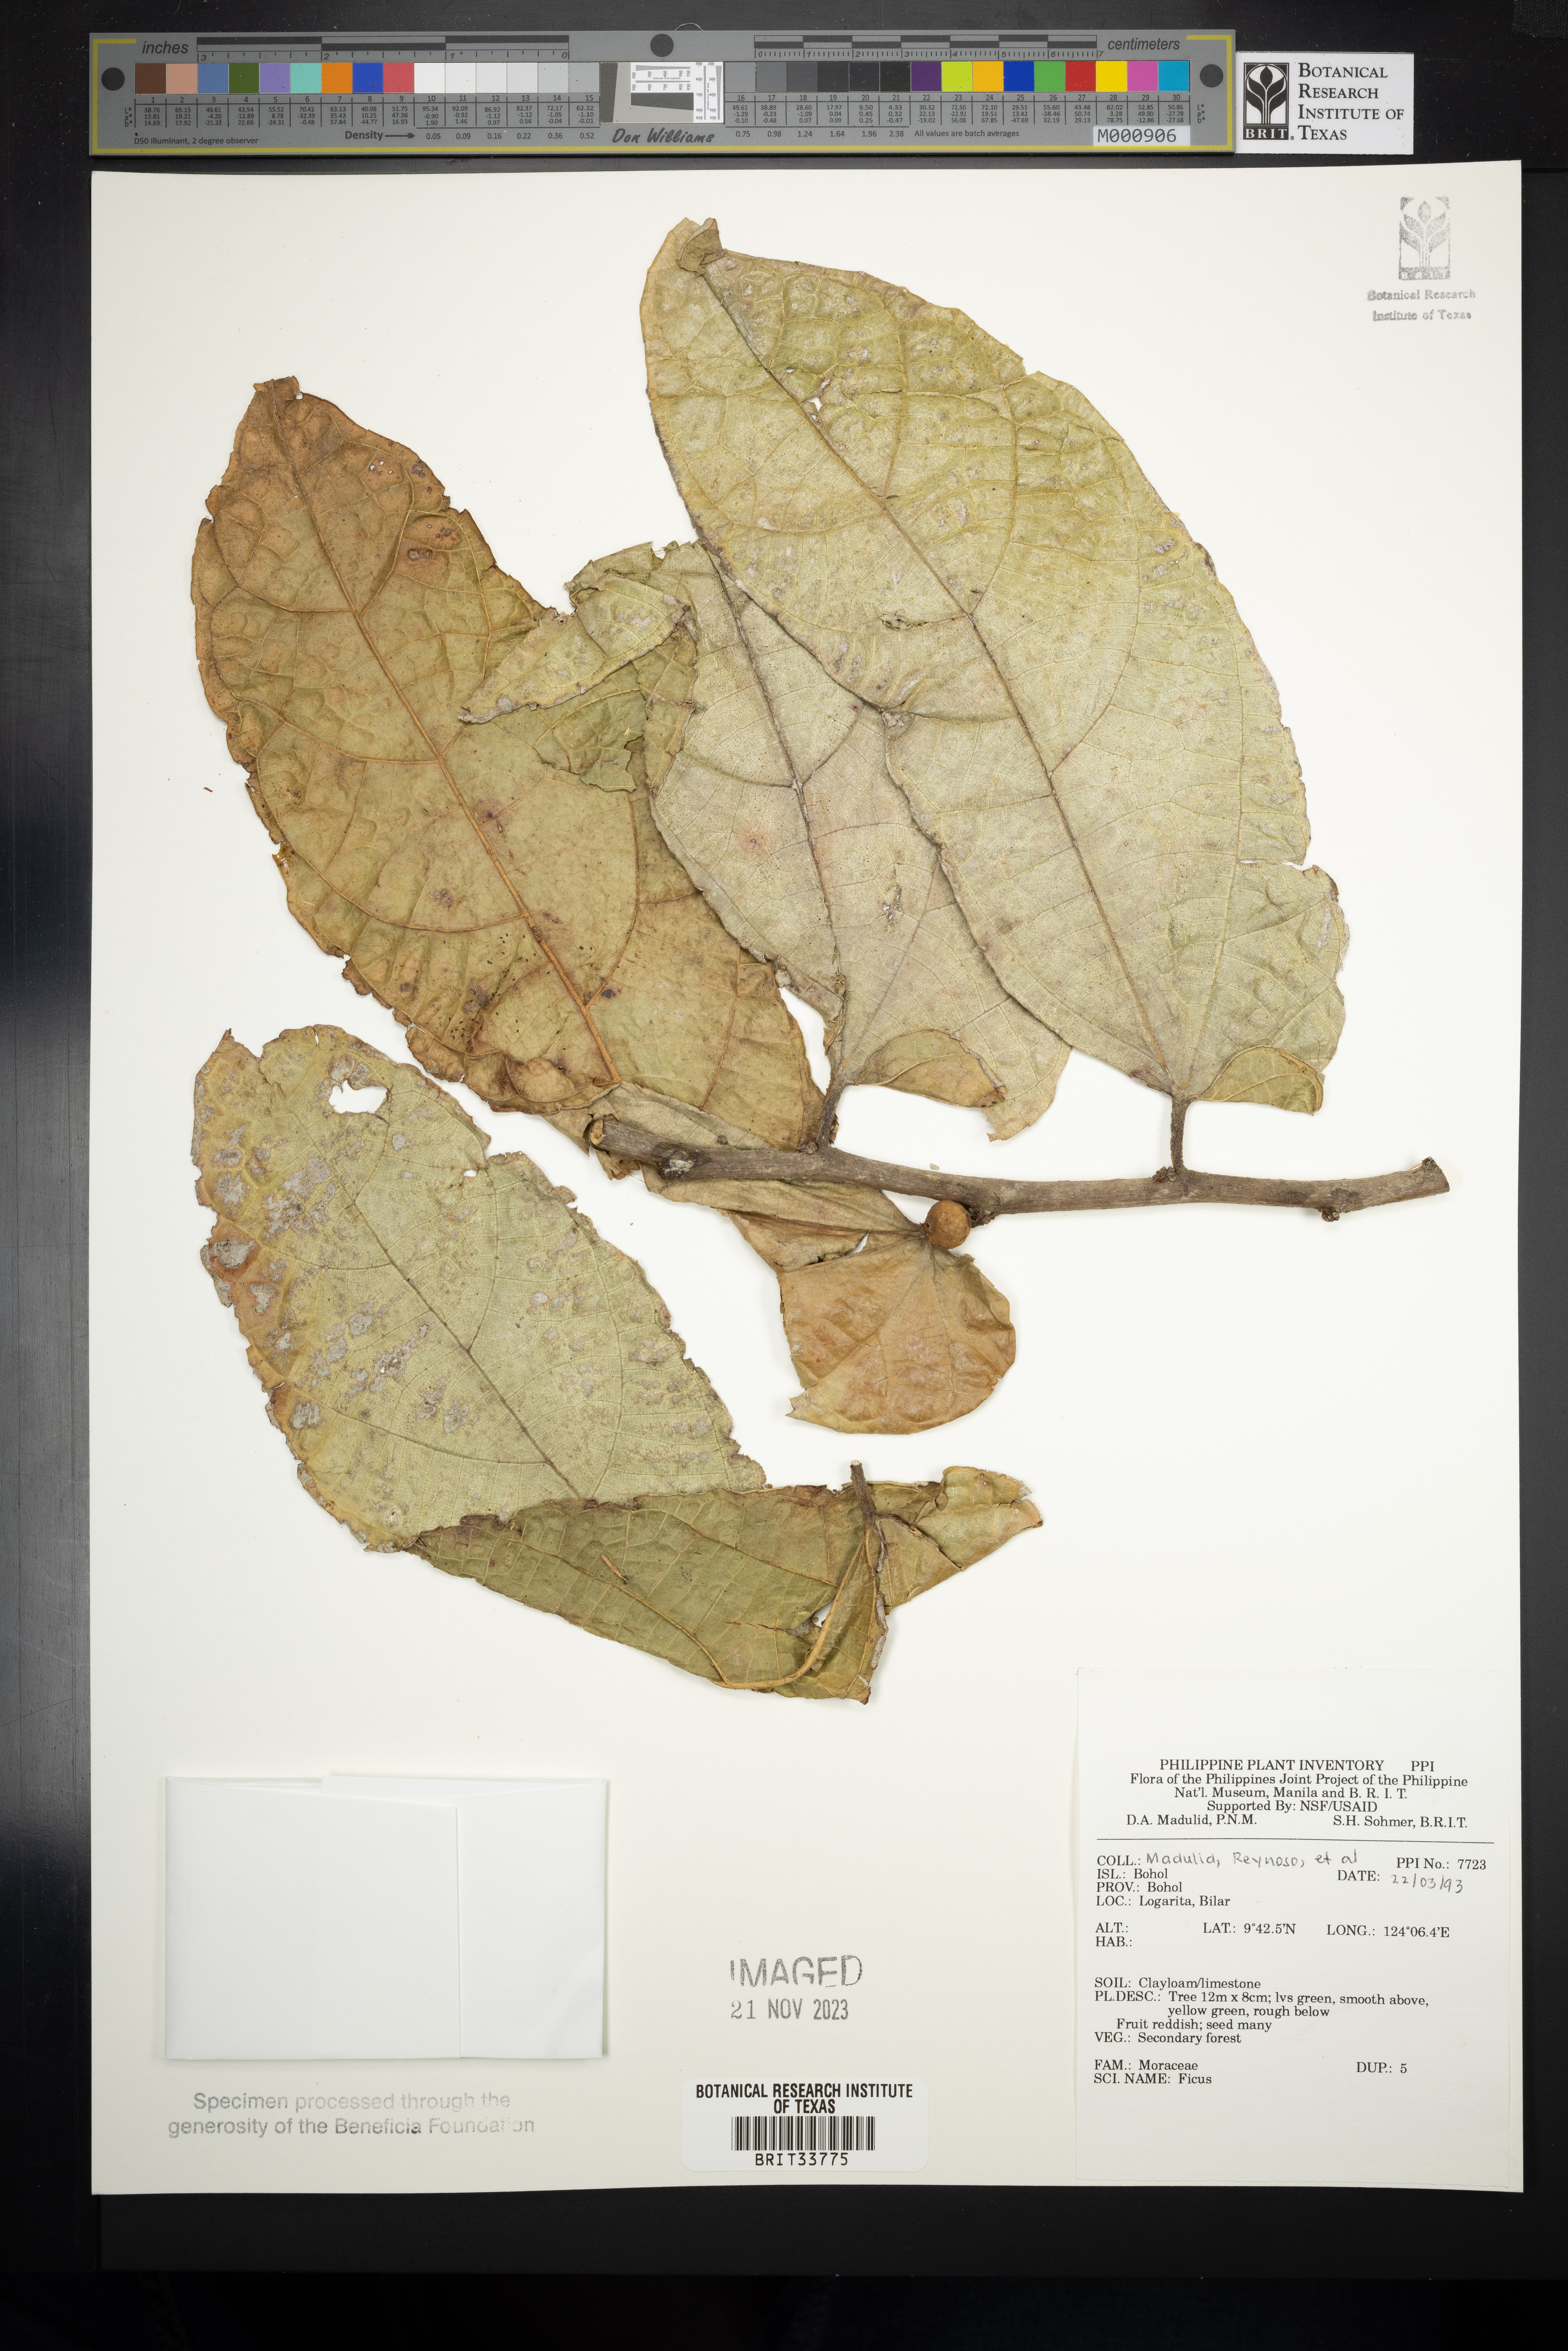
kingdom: Plantae
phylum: Tracheophyta
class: Magnoliopsida
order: Rosales
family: Moraceae
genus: Ficus
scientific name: Ficus
